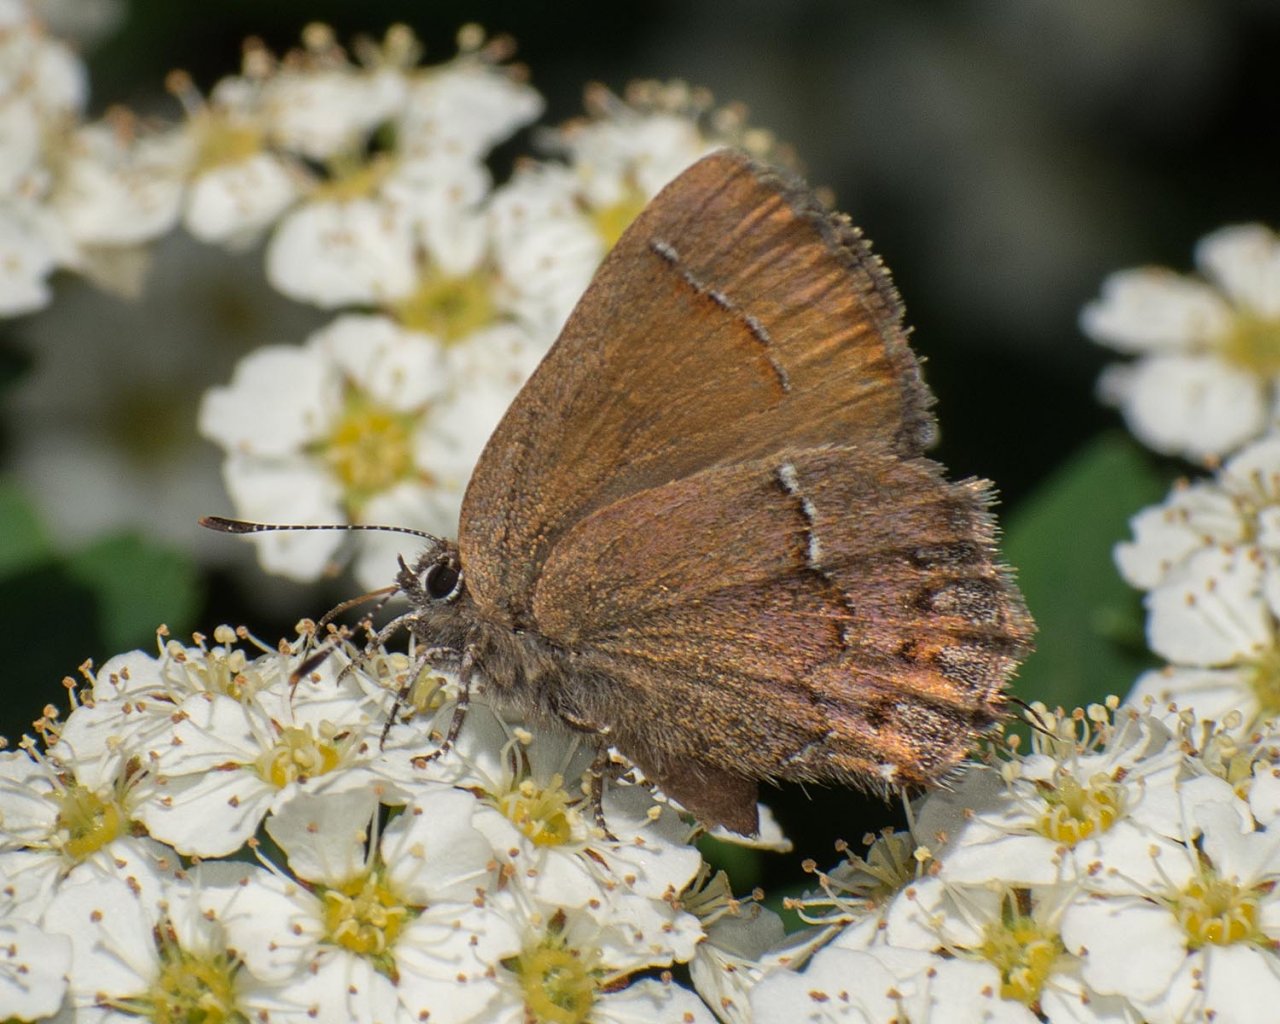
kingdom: Animalia
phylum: Arthropoda
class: Insecta
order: Lepidoptera
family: Lycaenidae
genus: Mitoura
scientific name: Mitoura nelsoni
